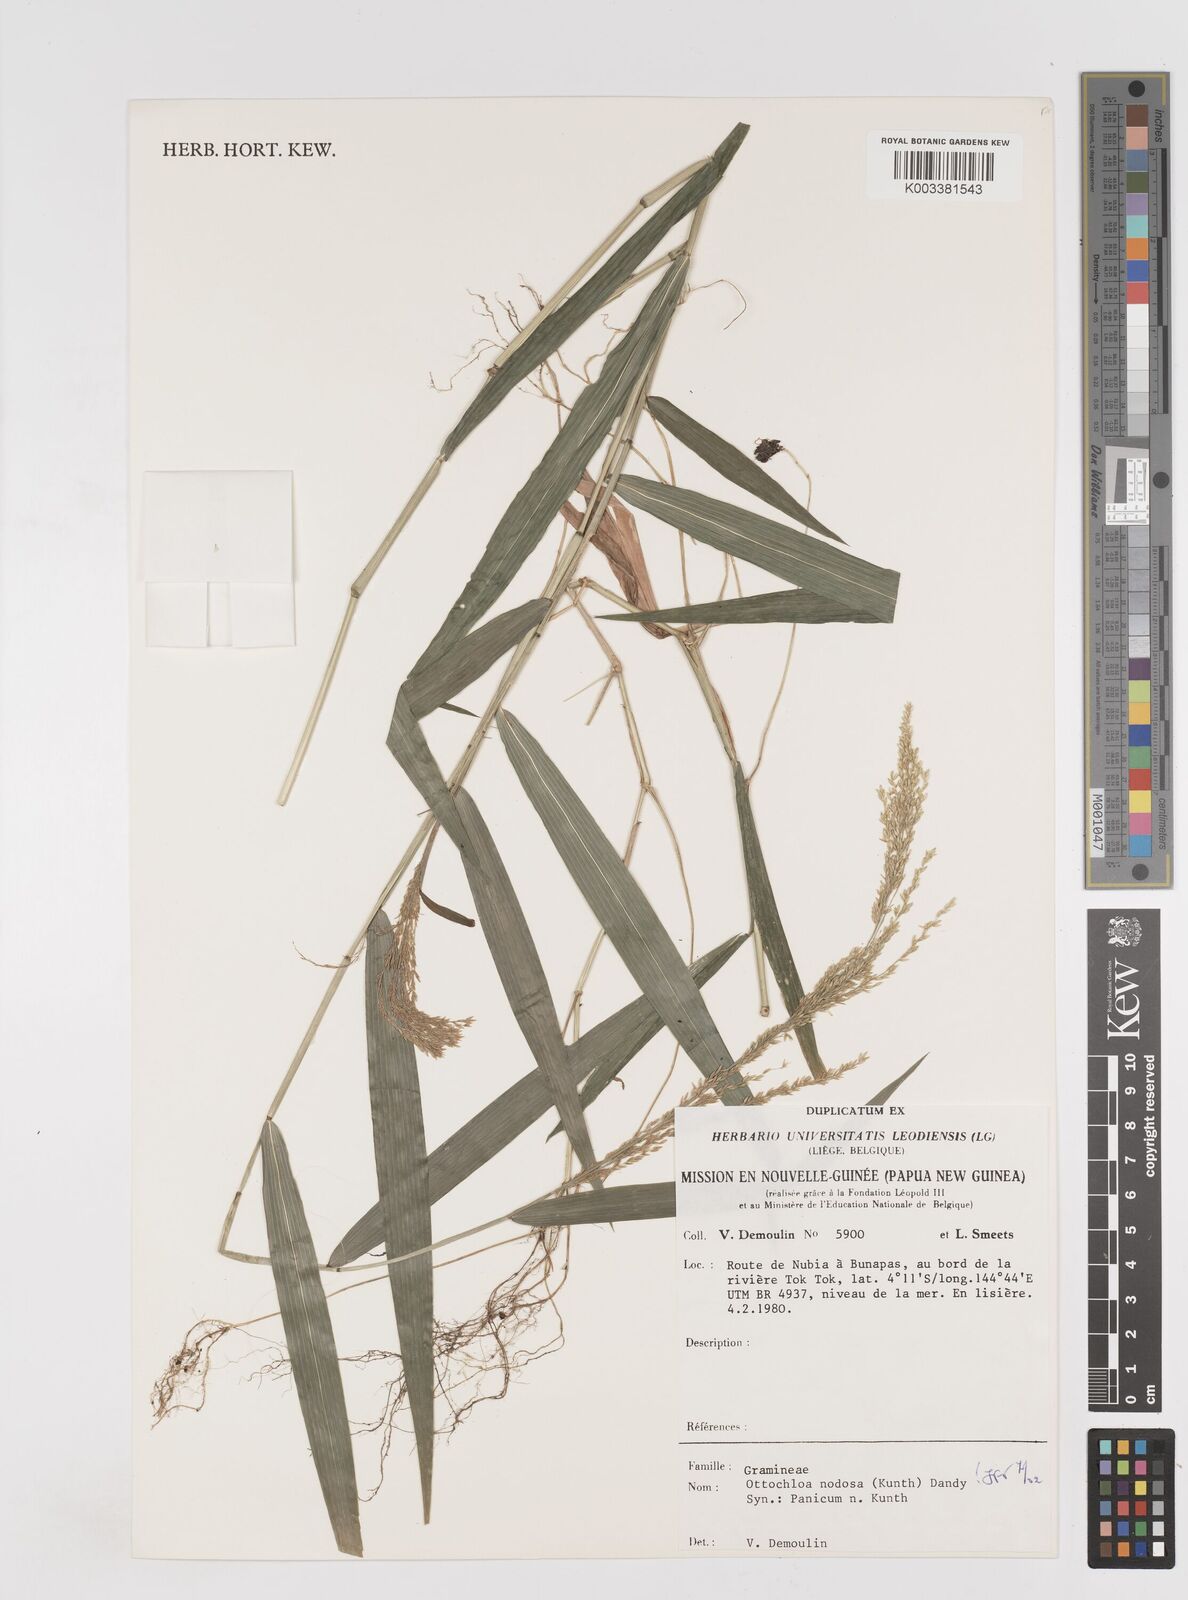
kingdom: Plantae
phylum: Tracheophyta
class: Liliopsida
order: Poales
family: Poaceae
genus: Ottochloa
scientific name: Ottochloa nodosa
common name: Slender-panic grass
